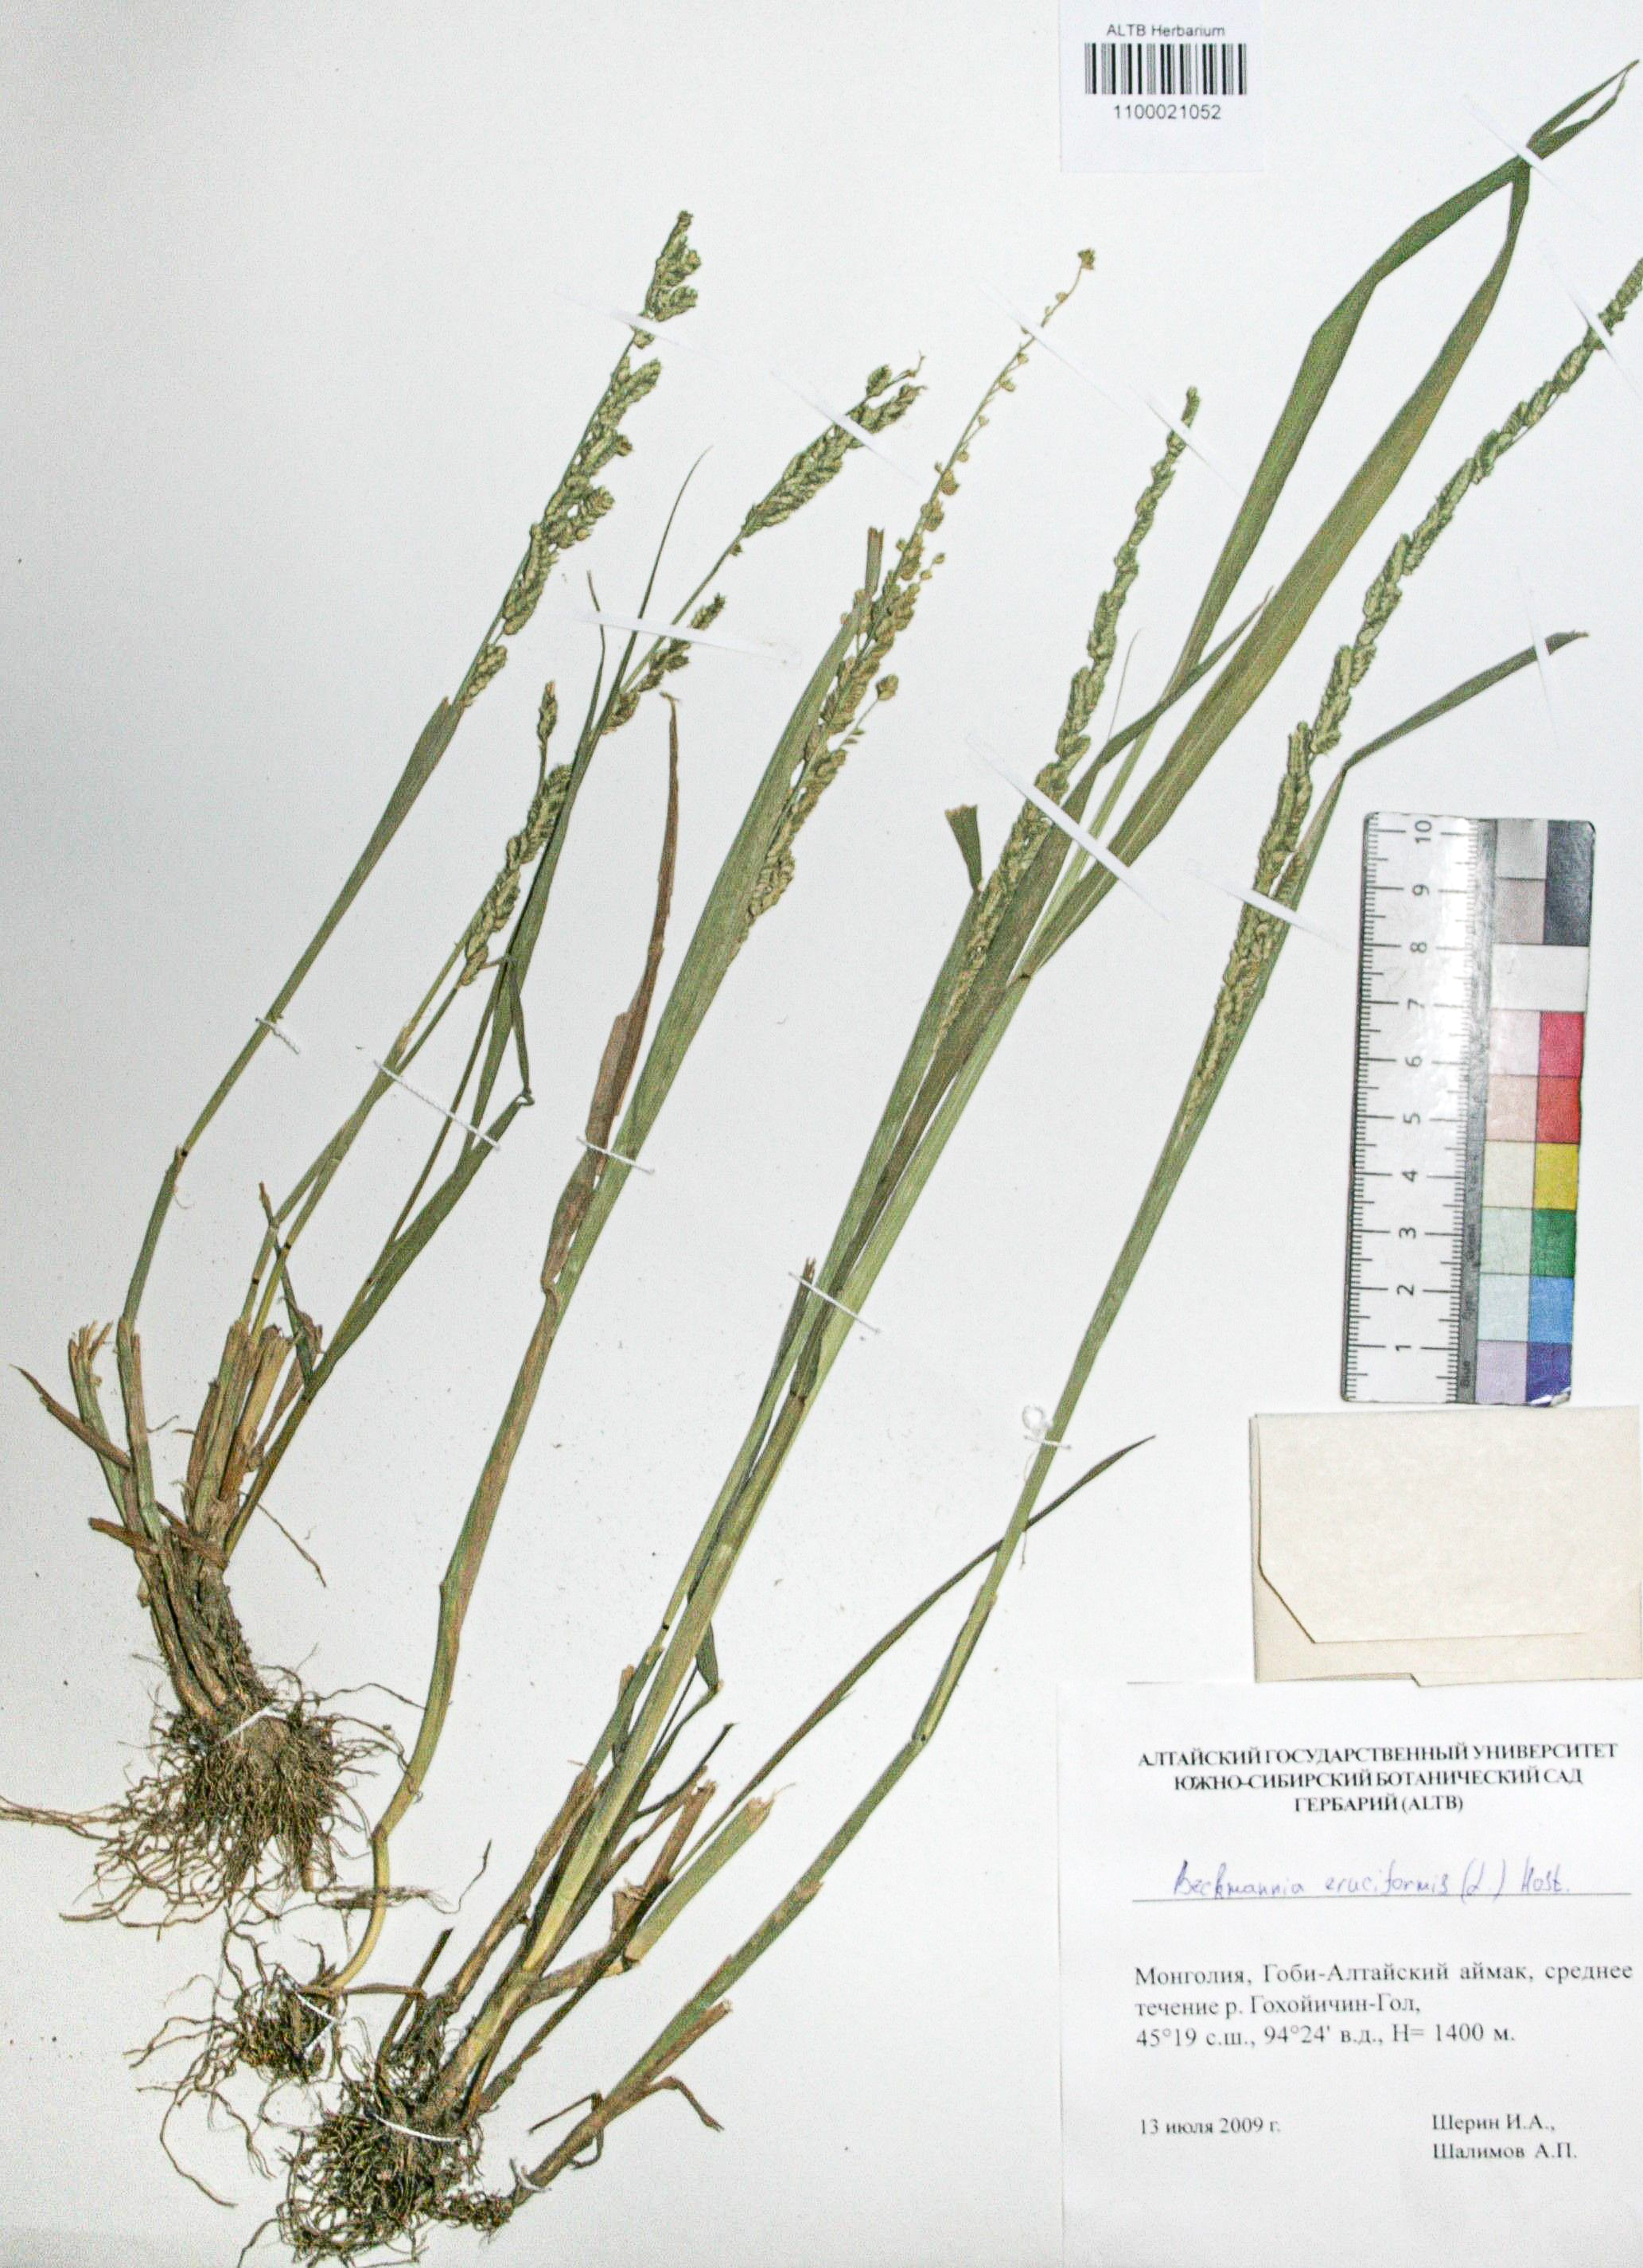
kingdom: Plantae
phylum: Tracheophyta
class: Liliopsida
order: Poales
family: Poaceae
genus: Beckmannia
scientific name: Beckmannia eruciformis
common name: European slough-grass
